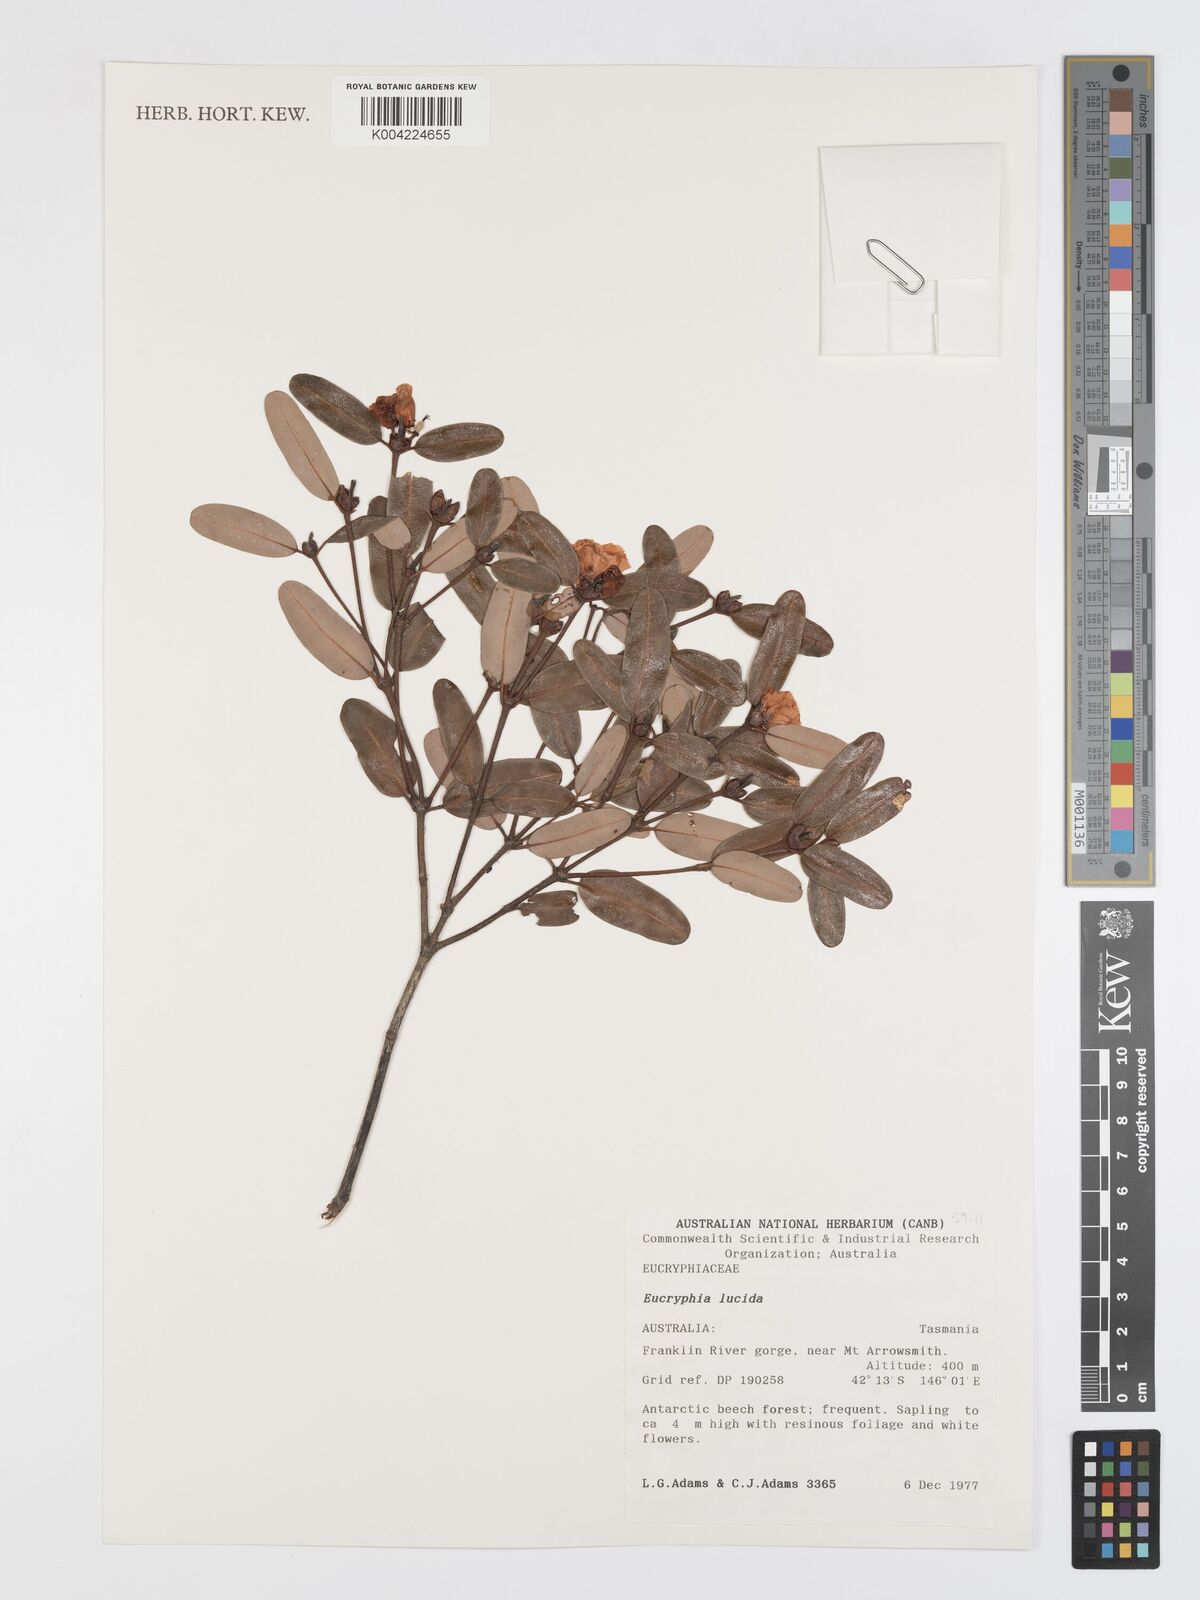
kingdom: Plantae
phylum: Tracheophyta
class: Magnoliopsida
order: Oxalidales
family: Cunoniaceae
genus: Eucryphia
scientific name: Eucryphia lucida
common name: Leatherwood
